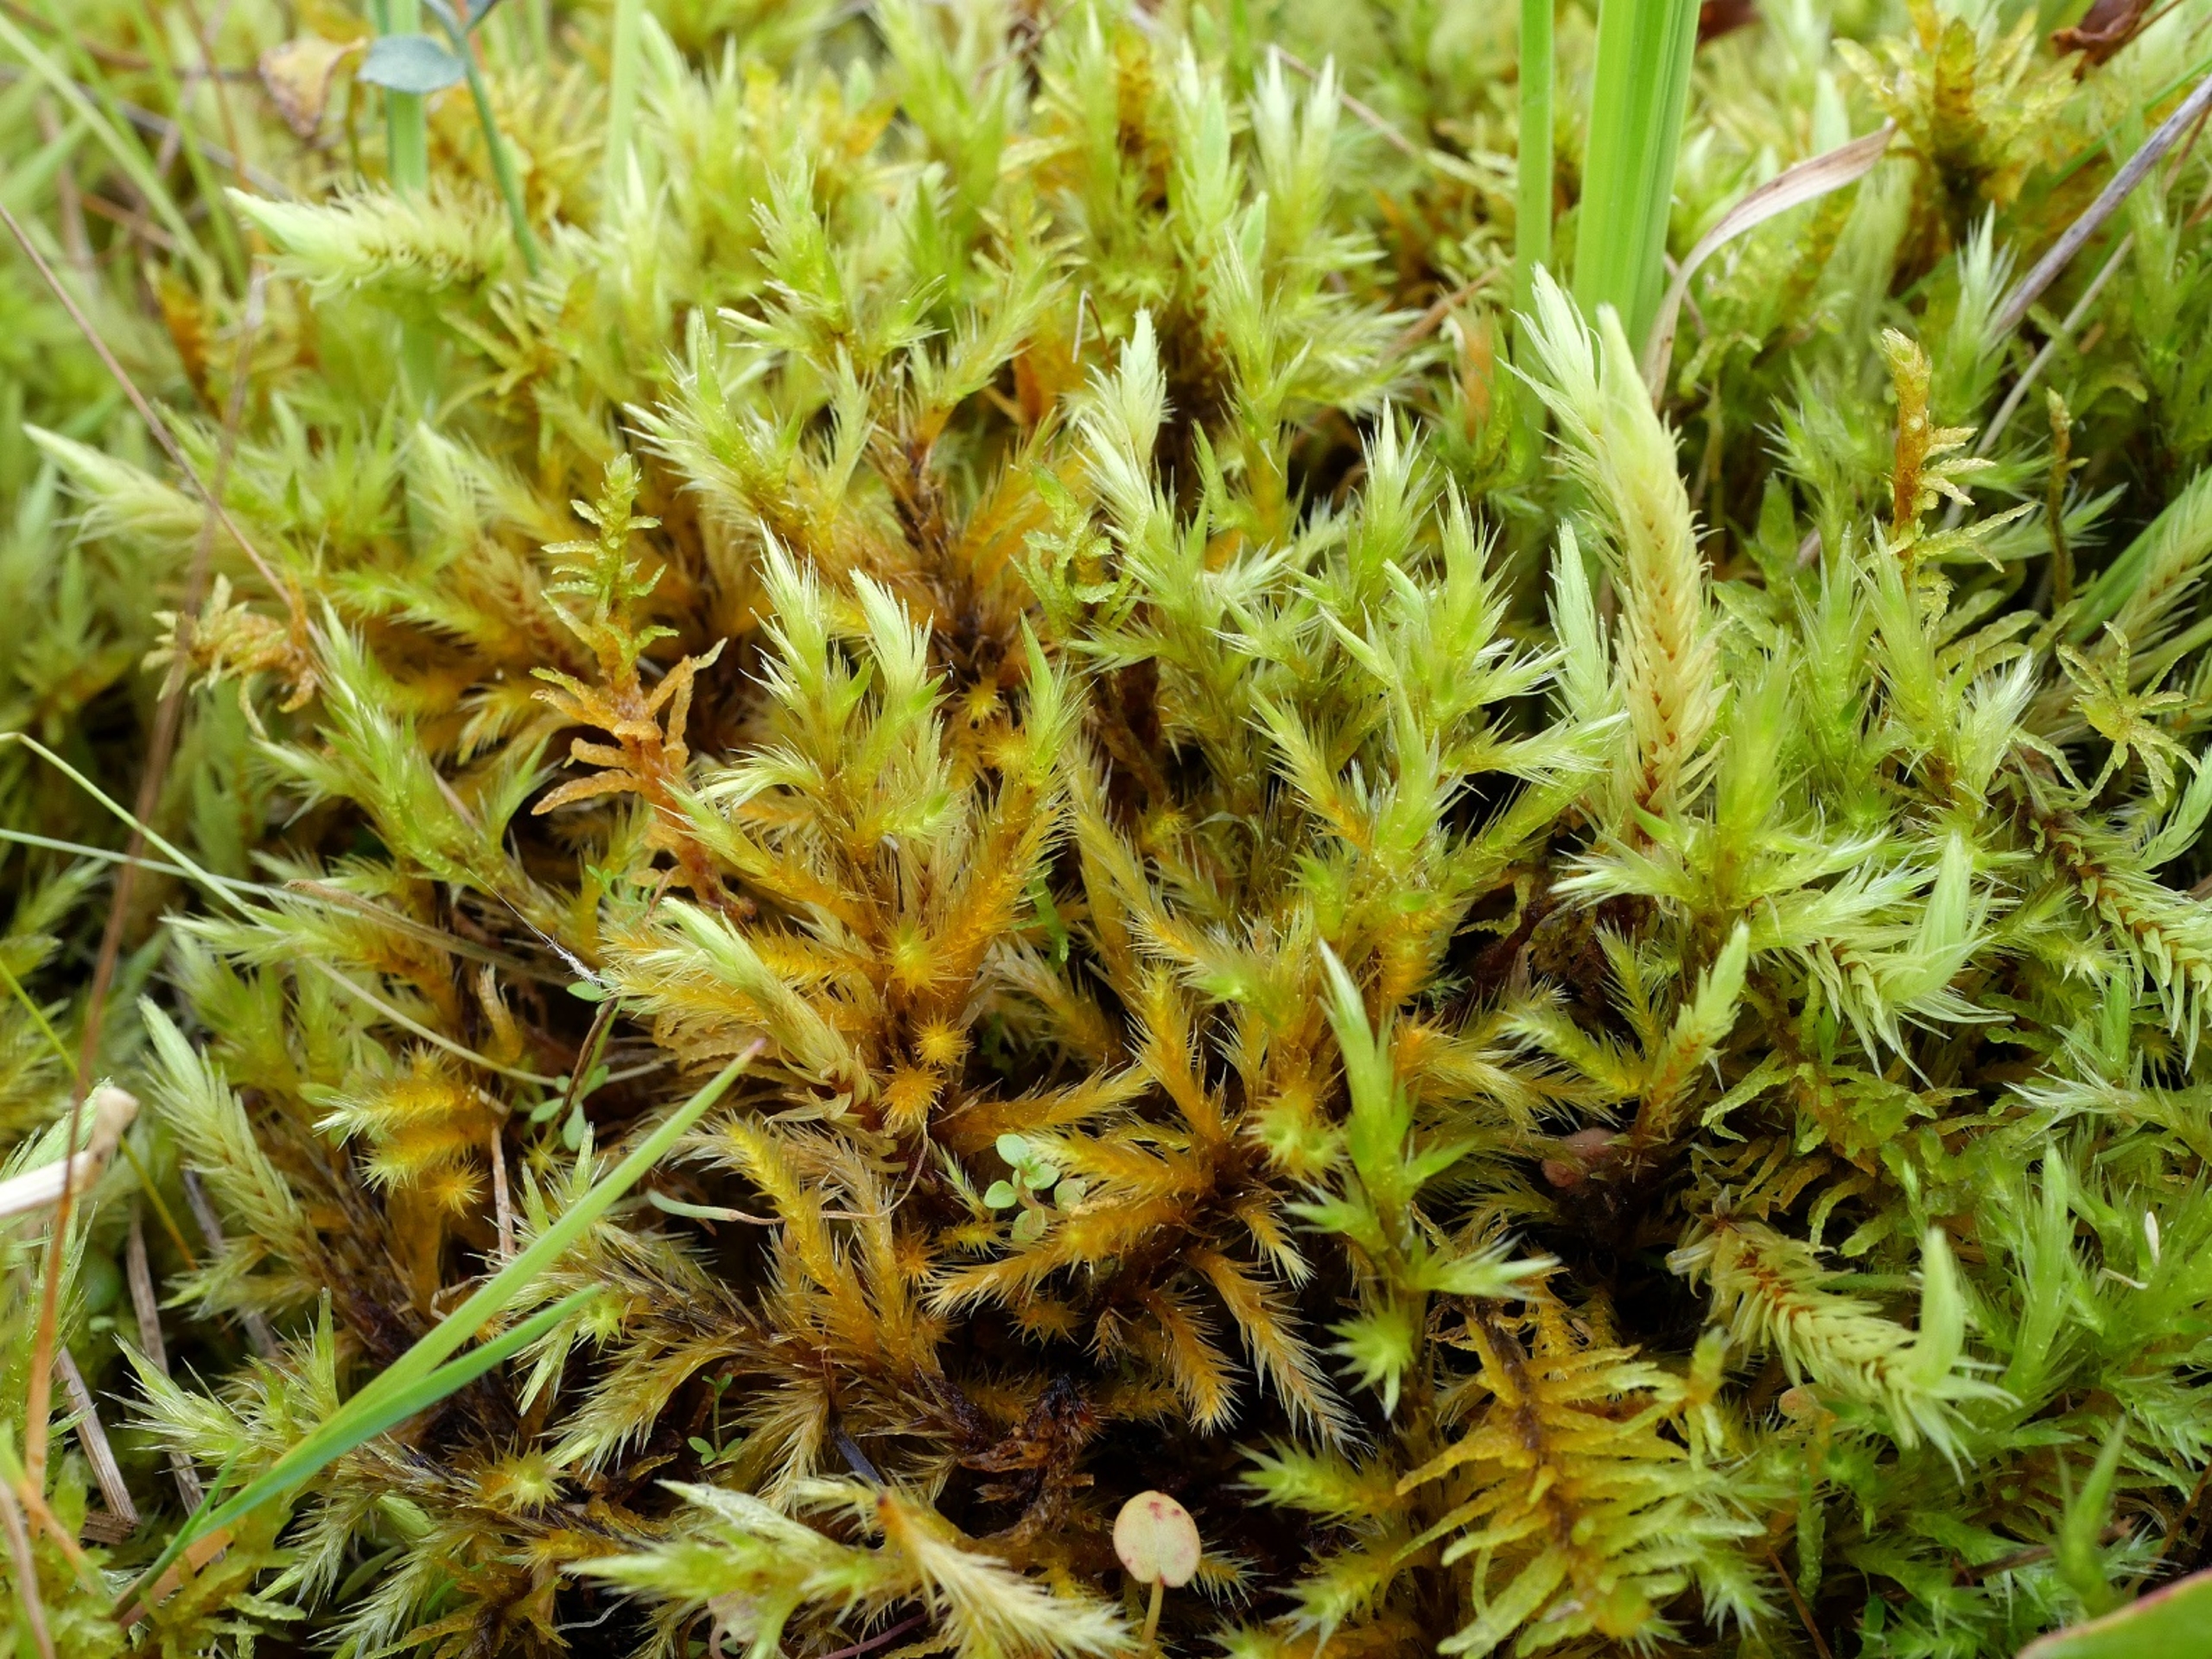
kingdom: Plantae
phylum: Bryophyta
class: Bryopsida
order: Hypnales
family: Amblystegiaceae
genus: Tomentypnum
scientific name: Tomentypnum nitens
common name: Glinsende kærmos
